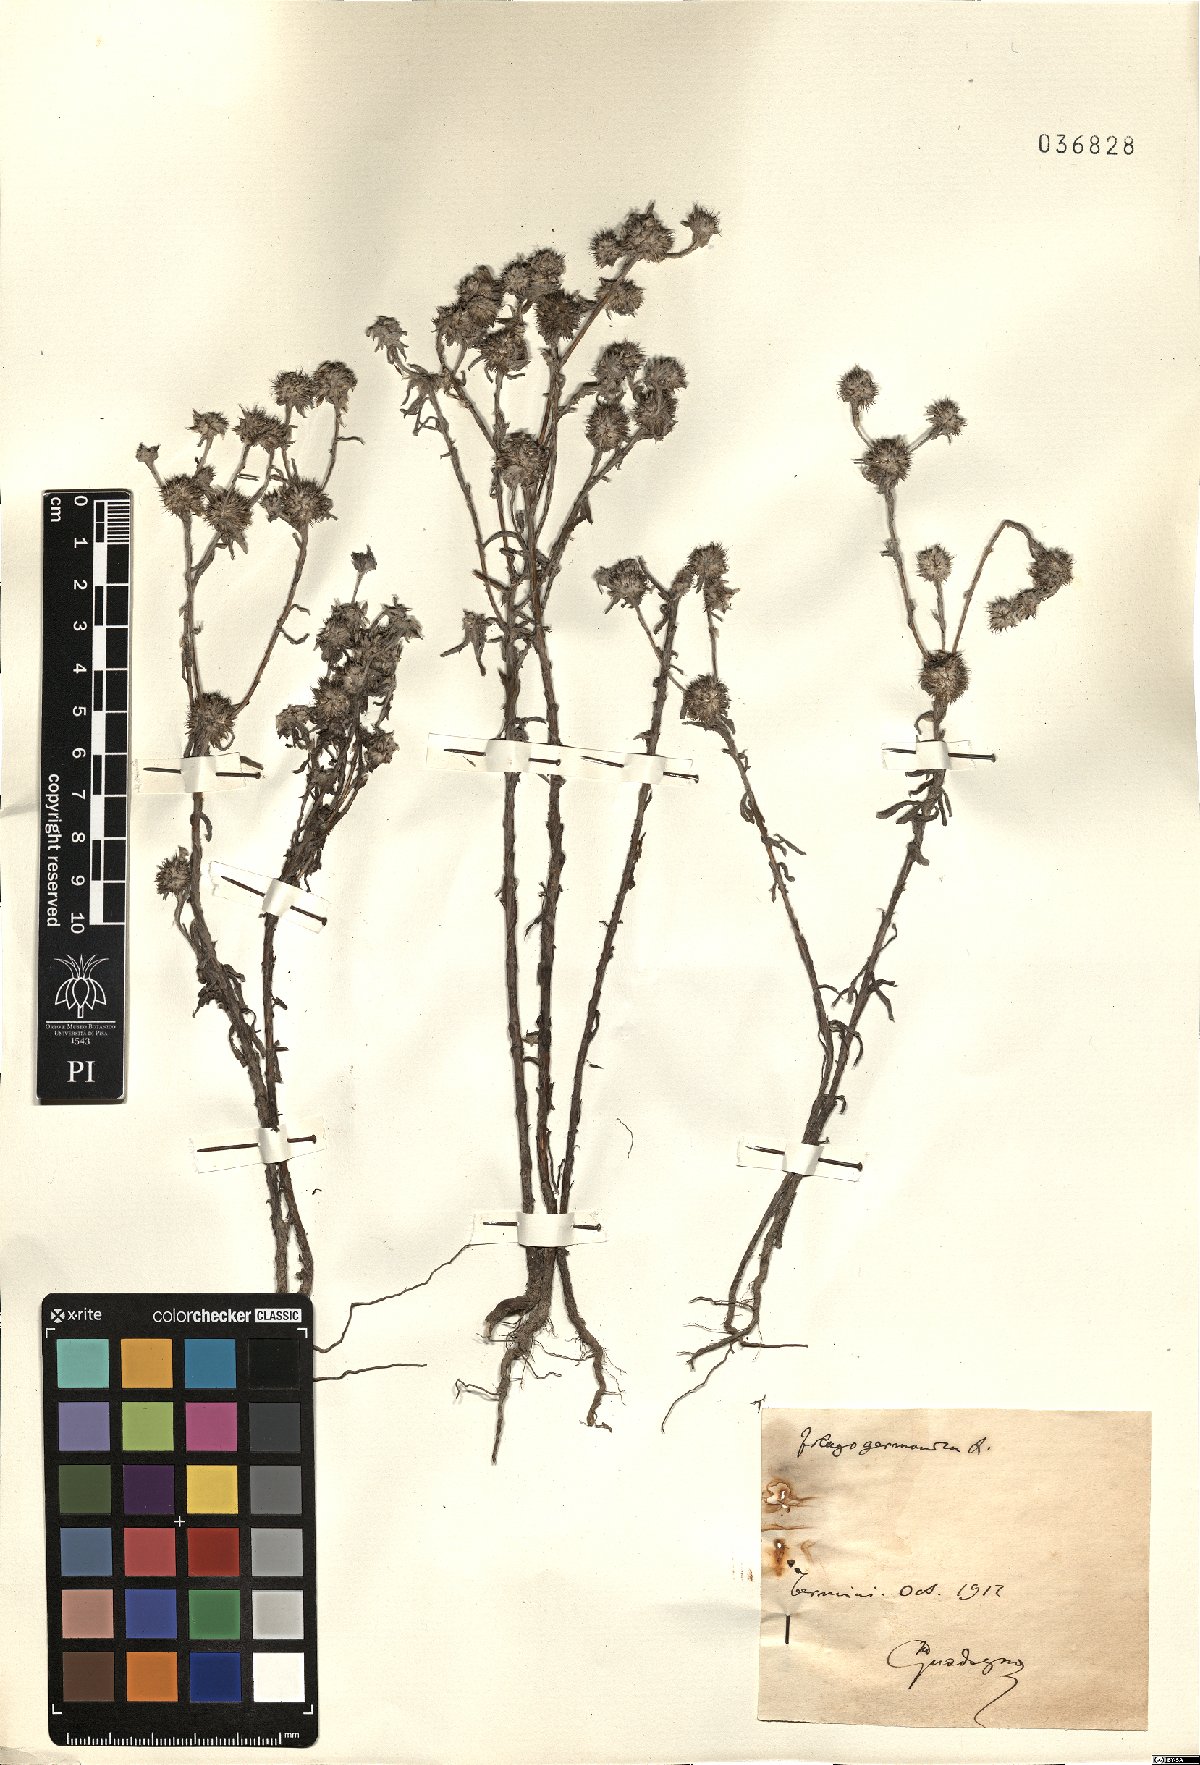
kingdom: Plantae
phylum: Tracheophyta
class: Magnoliopsida
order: Asterales
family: Asteraceae
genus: Filago
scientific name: Filago germanica
